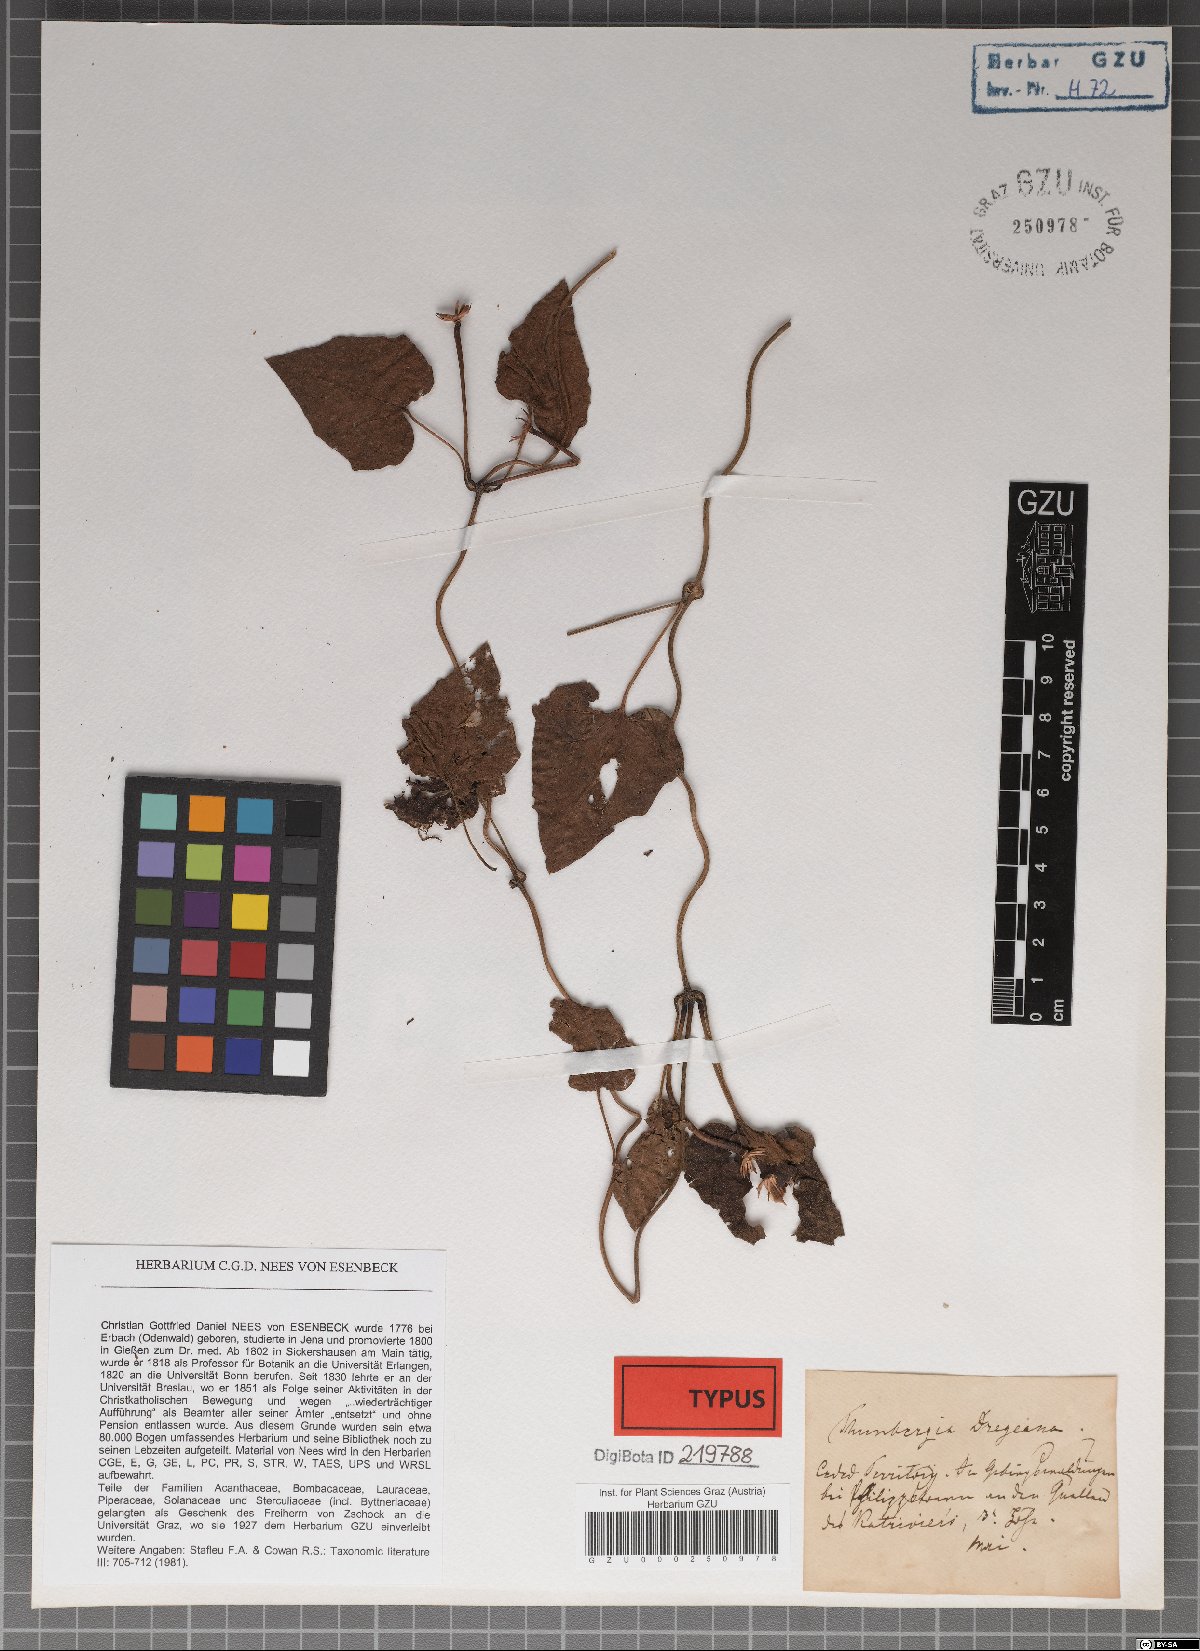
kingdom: Plantae
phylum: Tracheophyta
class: Magnoliopsida
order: Lamiales
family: Acanthaceae
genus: Thunbergia
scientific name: Thunbergia dregeana
